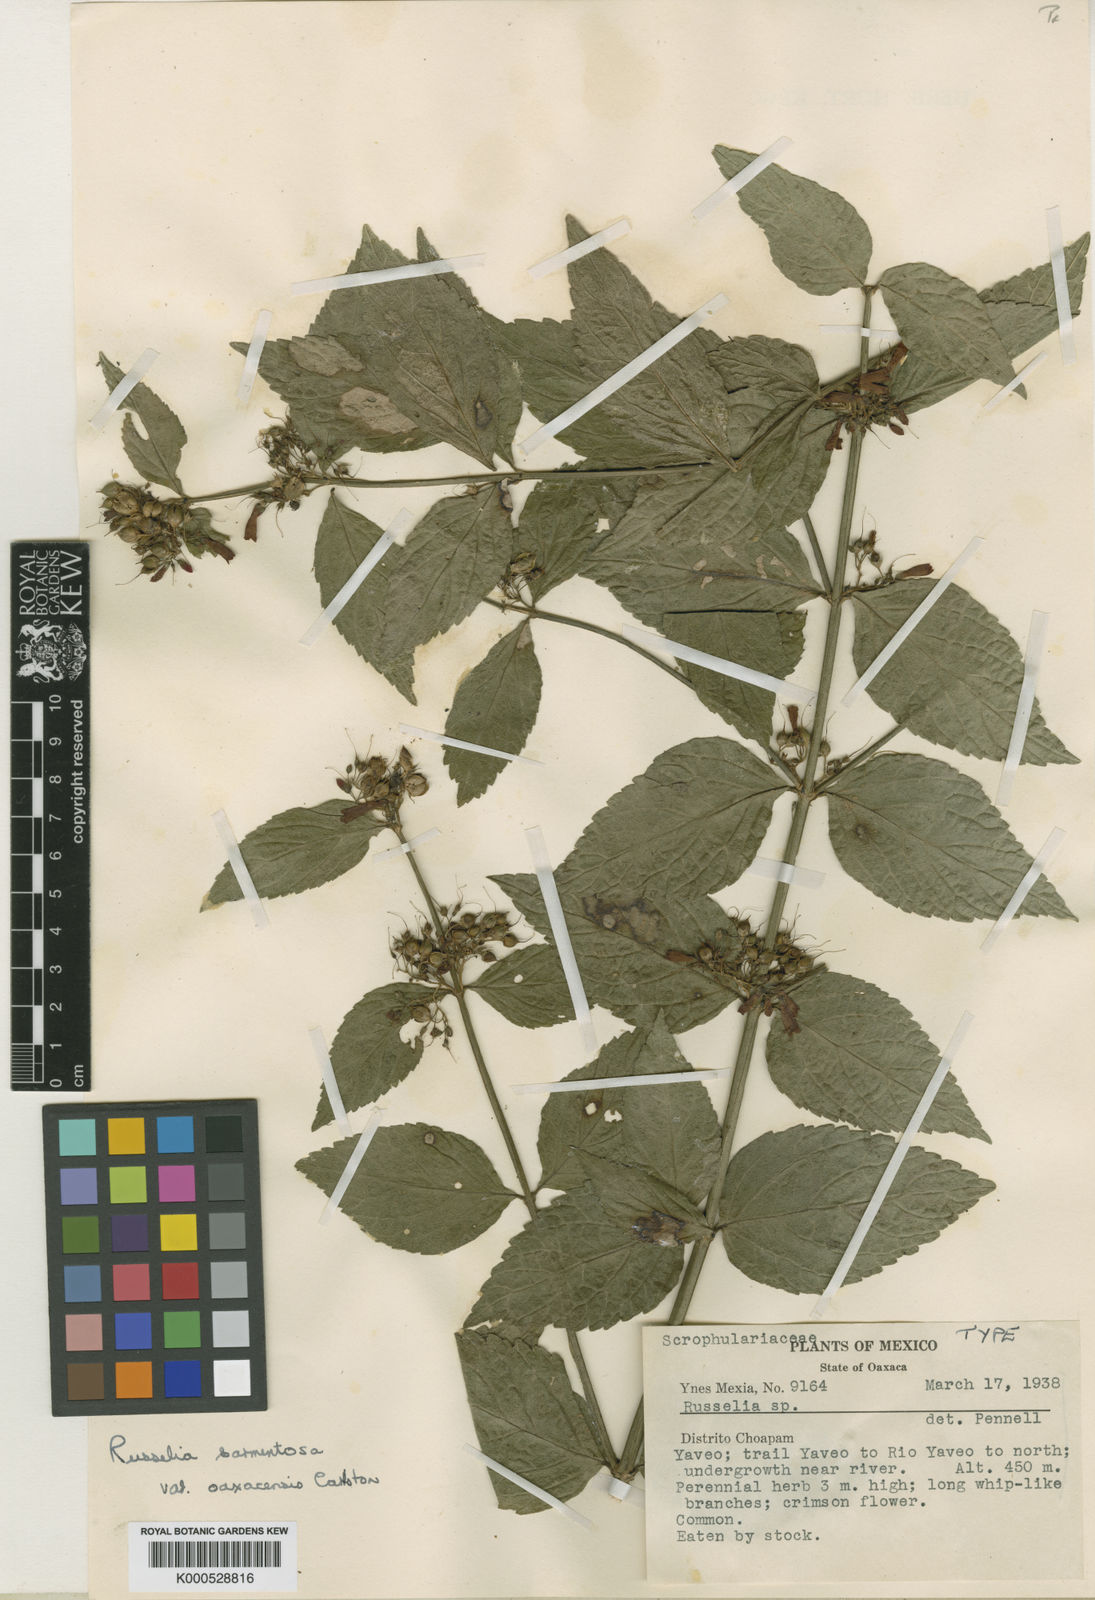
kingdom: Plantae
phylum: Tracheophyta
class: Magnoliopsida
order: Lamiales
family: Plantaginaceae
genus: Russelia
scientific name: Russelia sarmentosa
